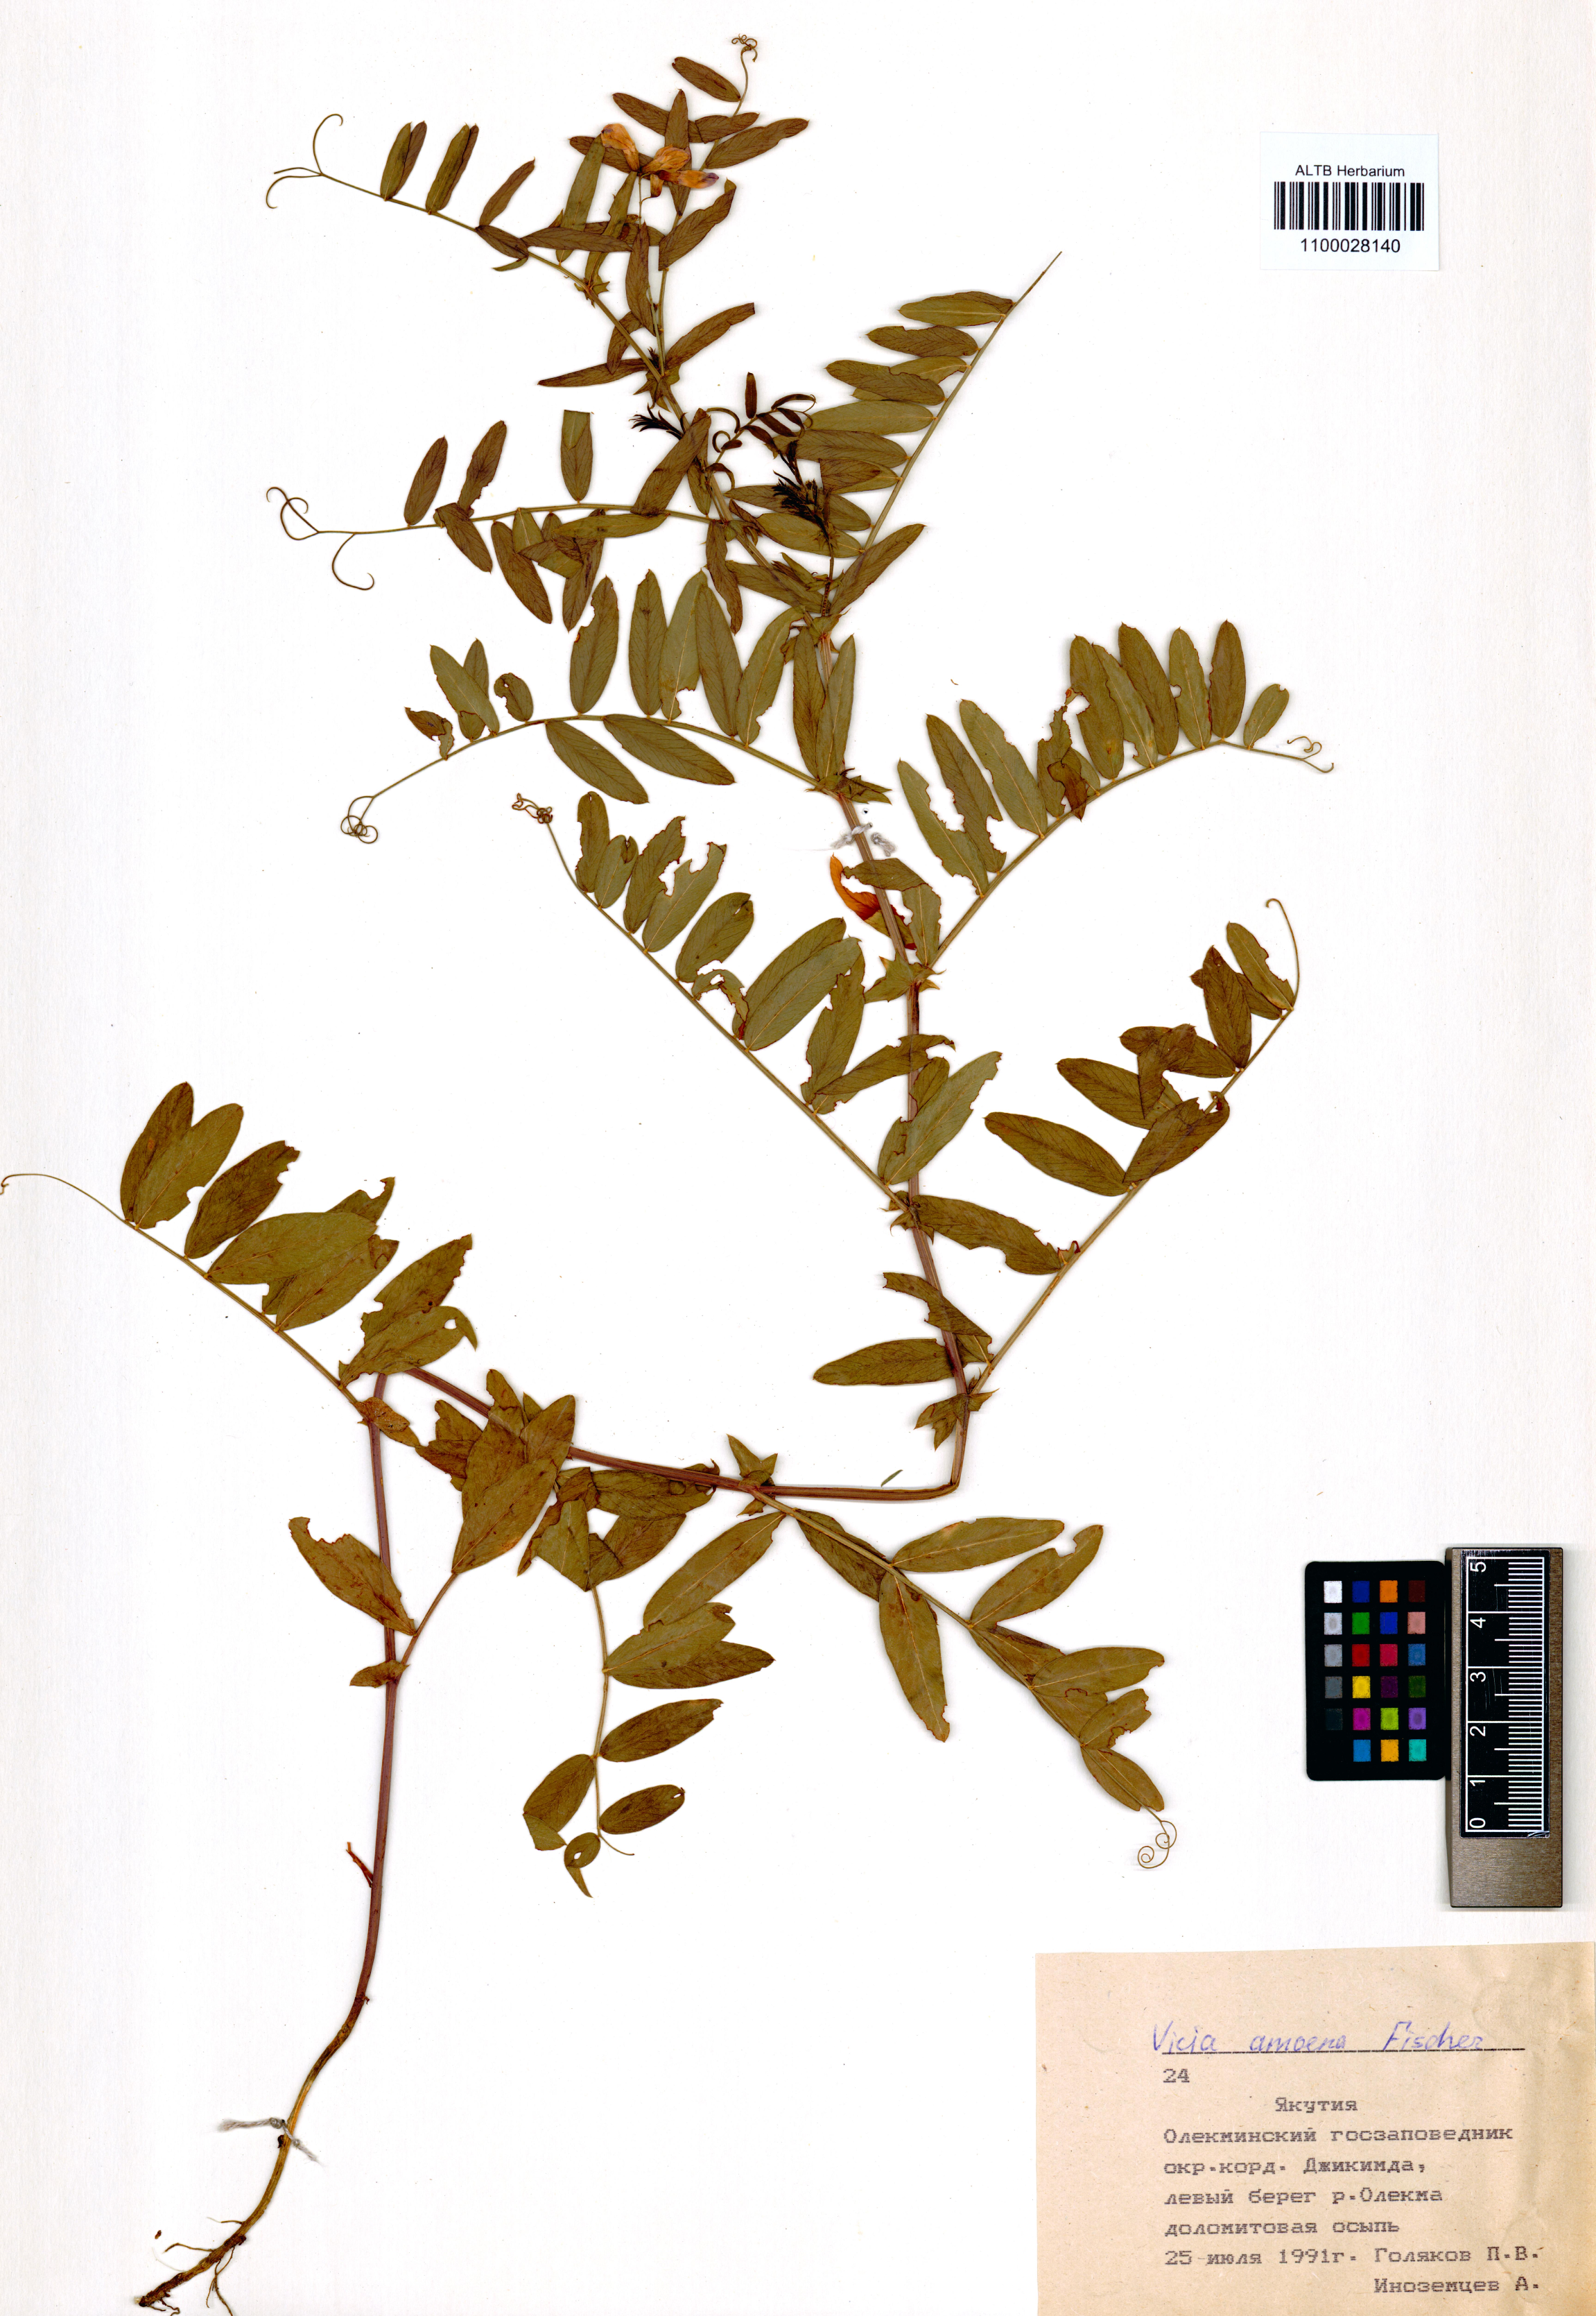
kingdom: Plantae
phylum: Tracheophyta
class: Magnoliopsida
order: Fabales
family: Fabaceae
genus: Vicia
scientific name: Vicia amoena
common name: Cheder ebs
